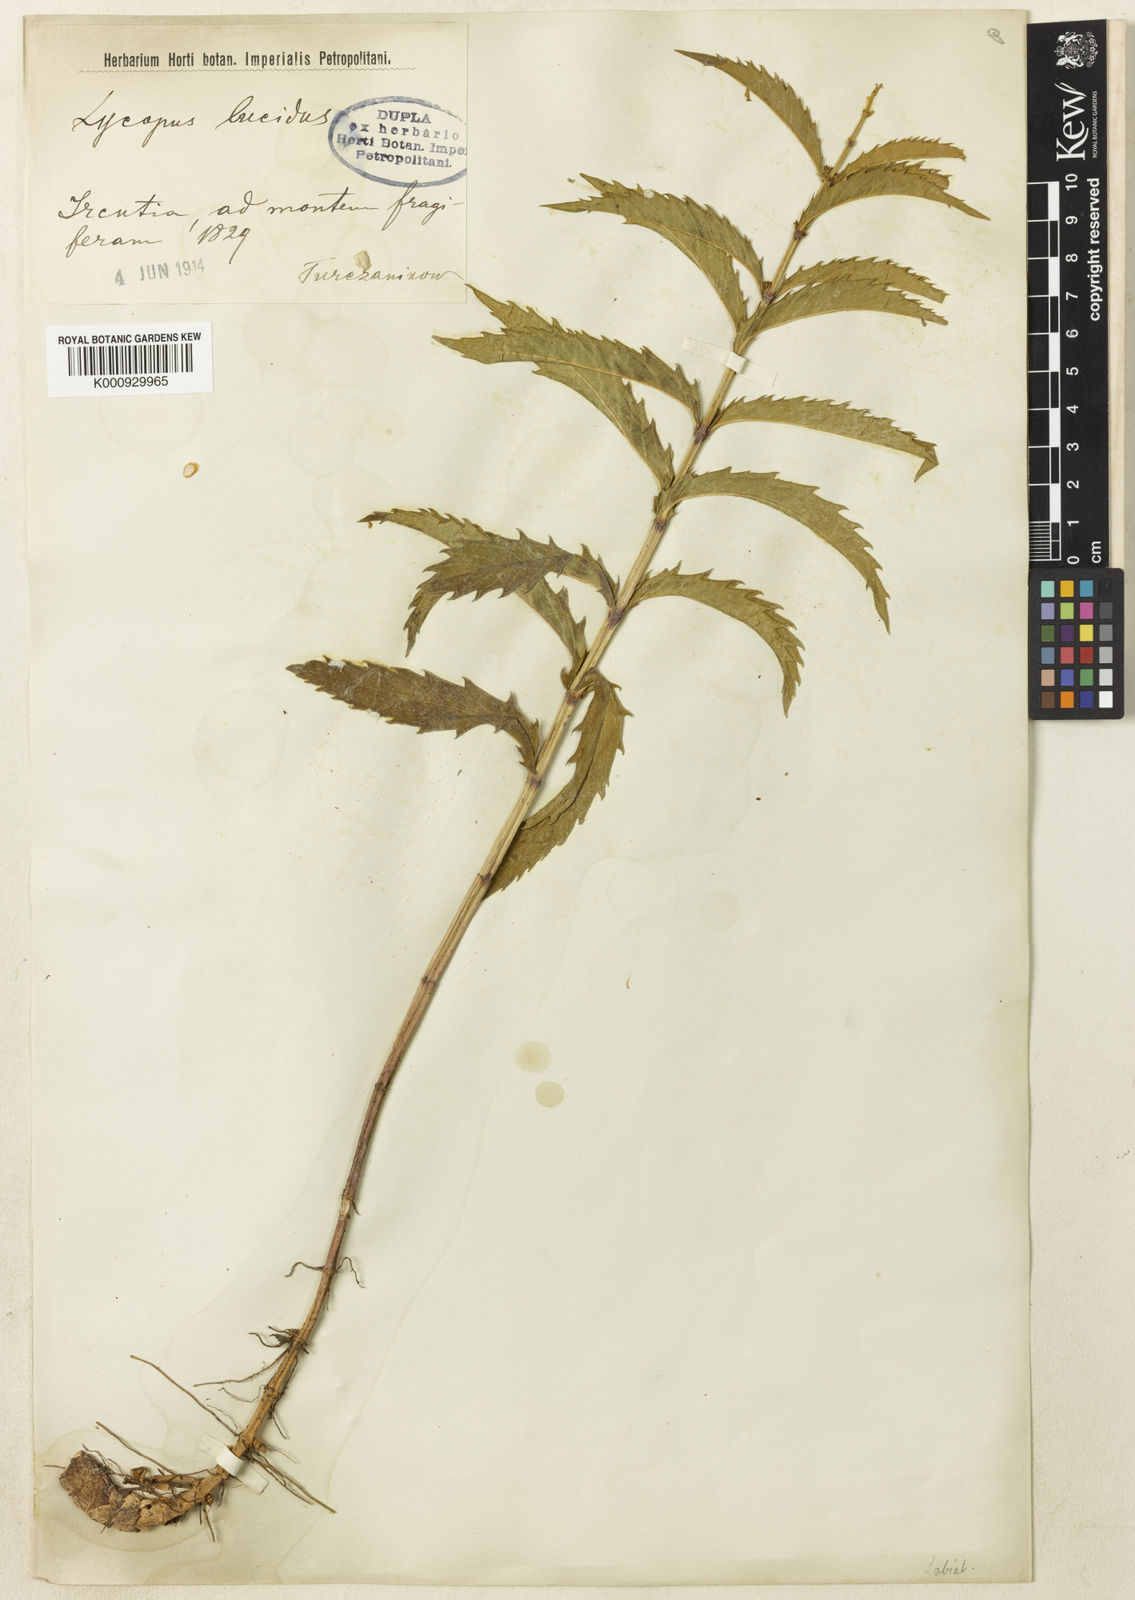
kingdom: Plantae
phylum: Tracheophyta
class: Magnoliopsida
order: Lamiales
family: Lamiaceae
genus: Lycopus
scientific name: Lycopus lucidus
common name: Shiny bugleweed
